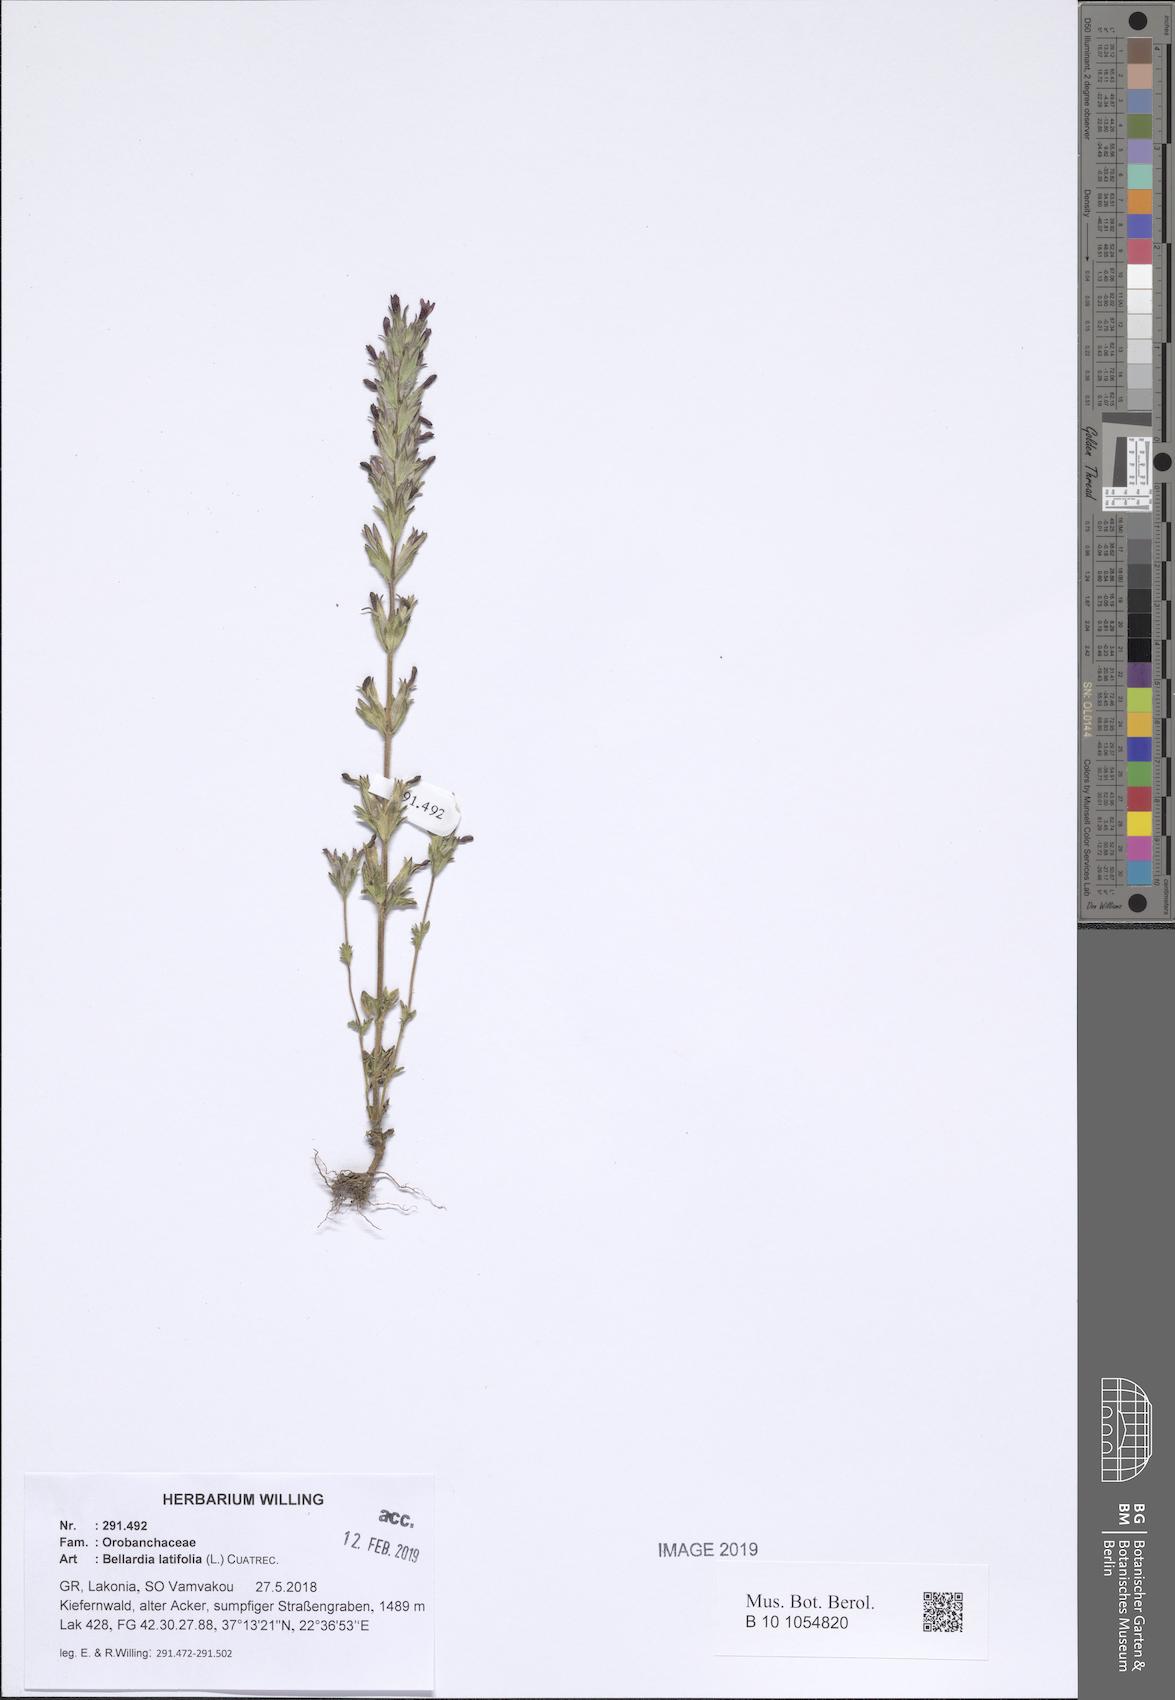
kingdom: Plantae
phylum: Tracheophyta
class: Magnoliopsida
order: Lamiales
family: Orobanchaceae
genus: Parentucellia
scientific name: Parentucellia latifolia
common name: Broadleaf glandweed
